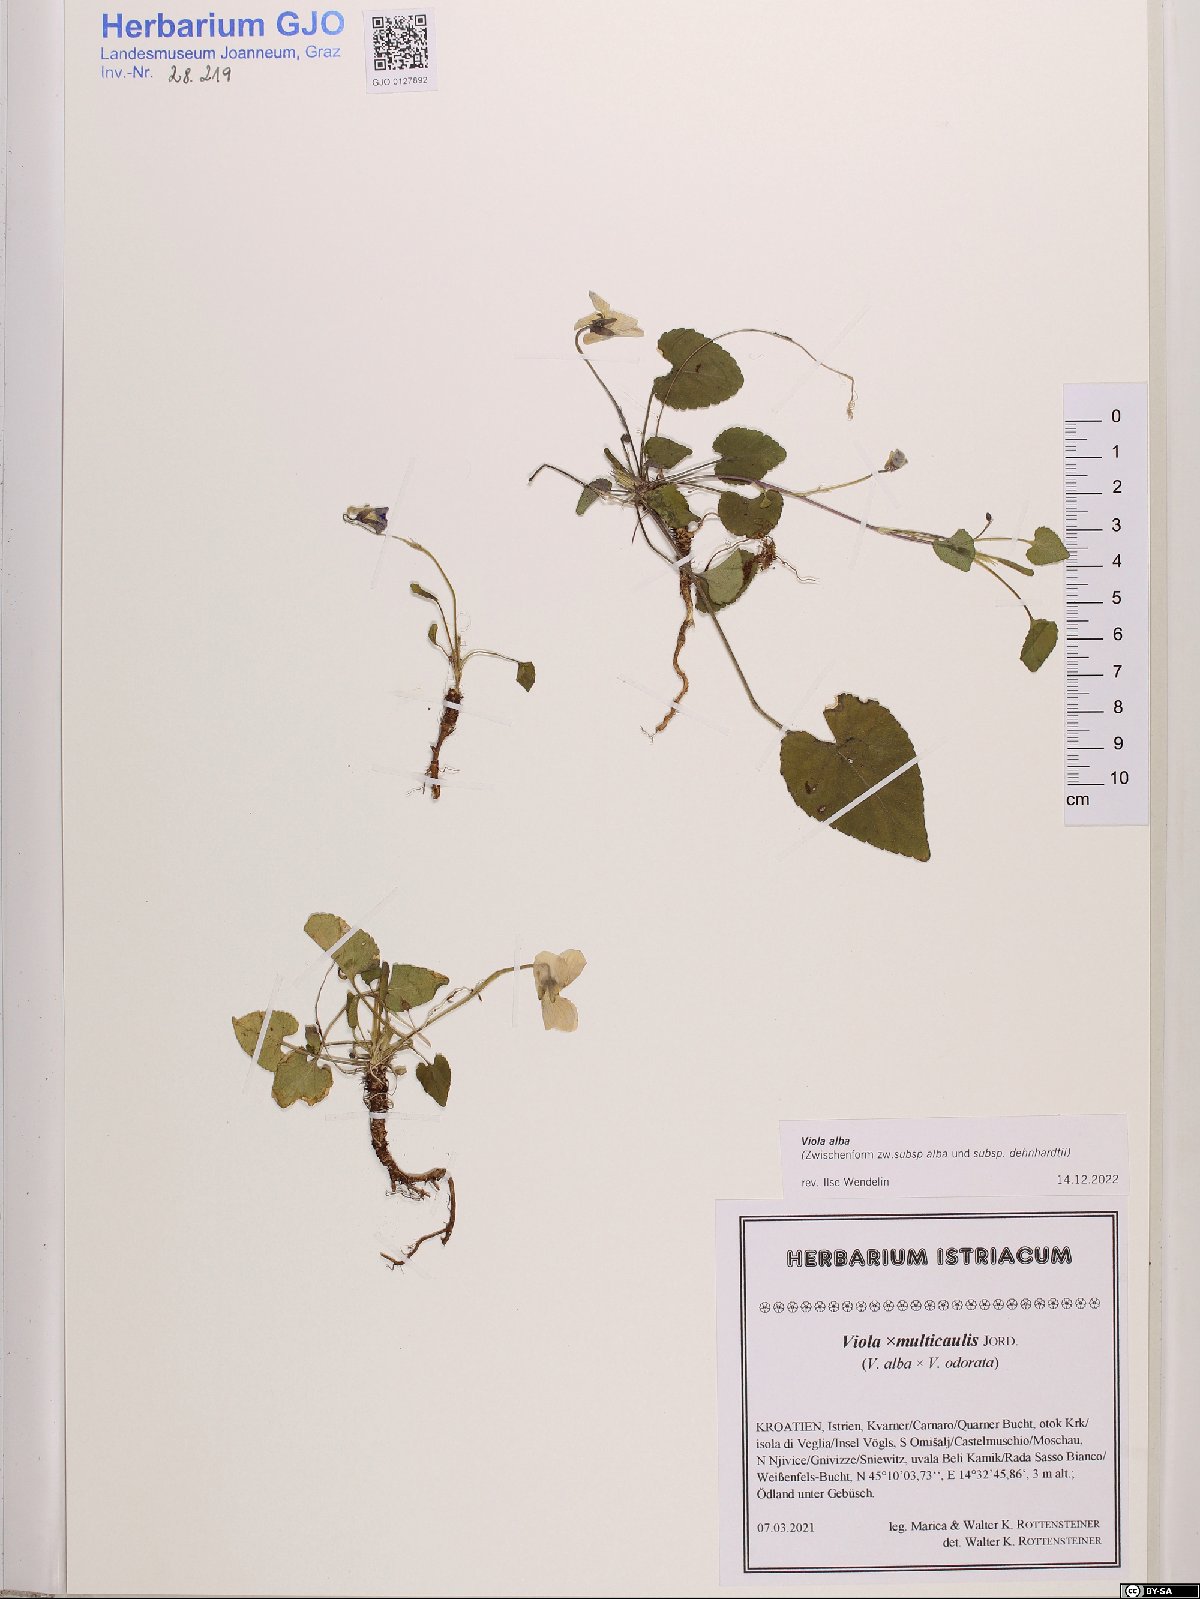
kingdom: Plantae
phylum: Tracheophyta
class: Magnoliopsida
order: Malpighiales
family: Violaceae
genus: Viola
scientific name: Viola alba
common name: White violet
